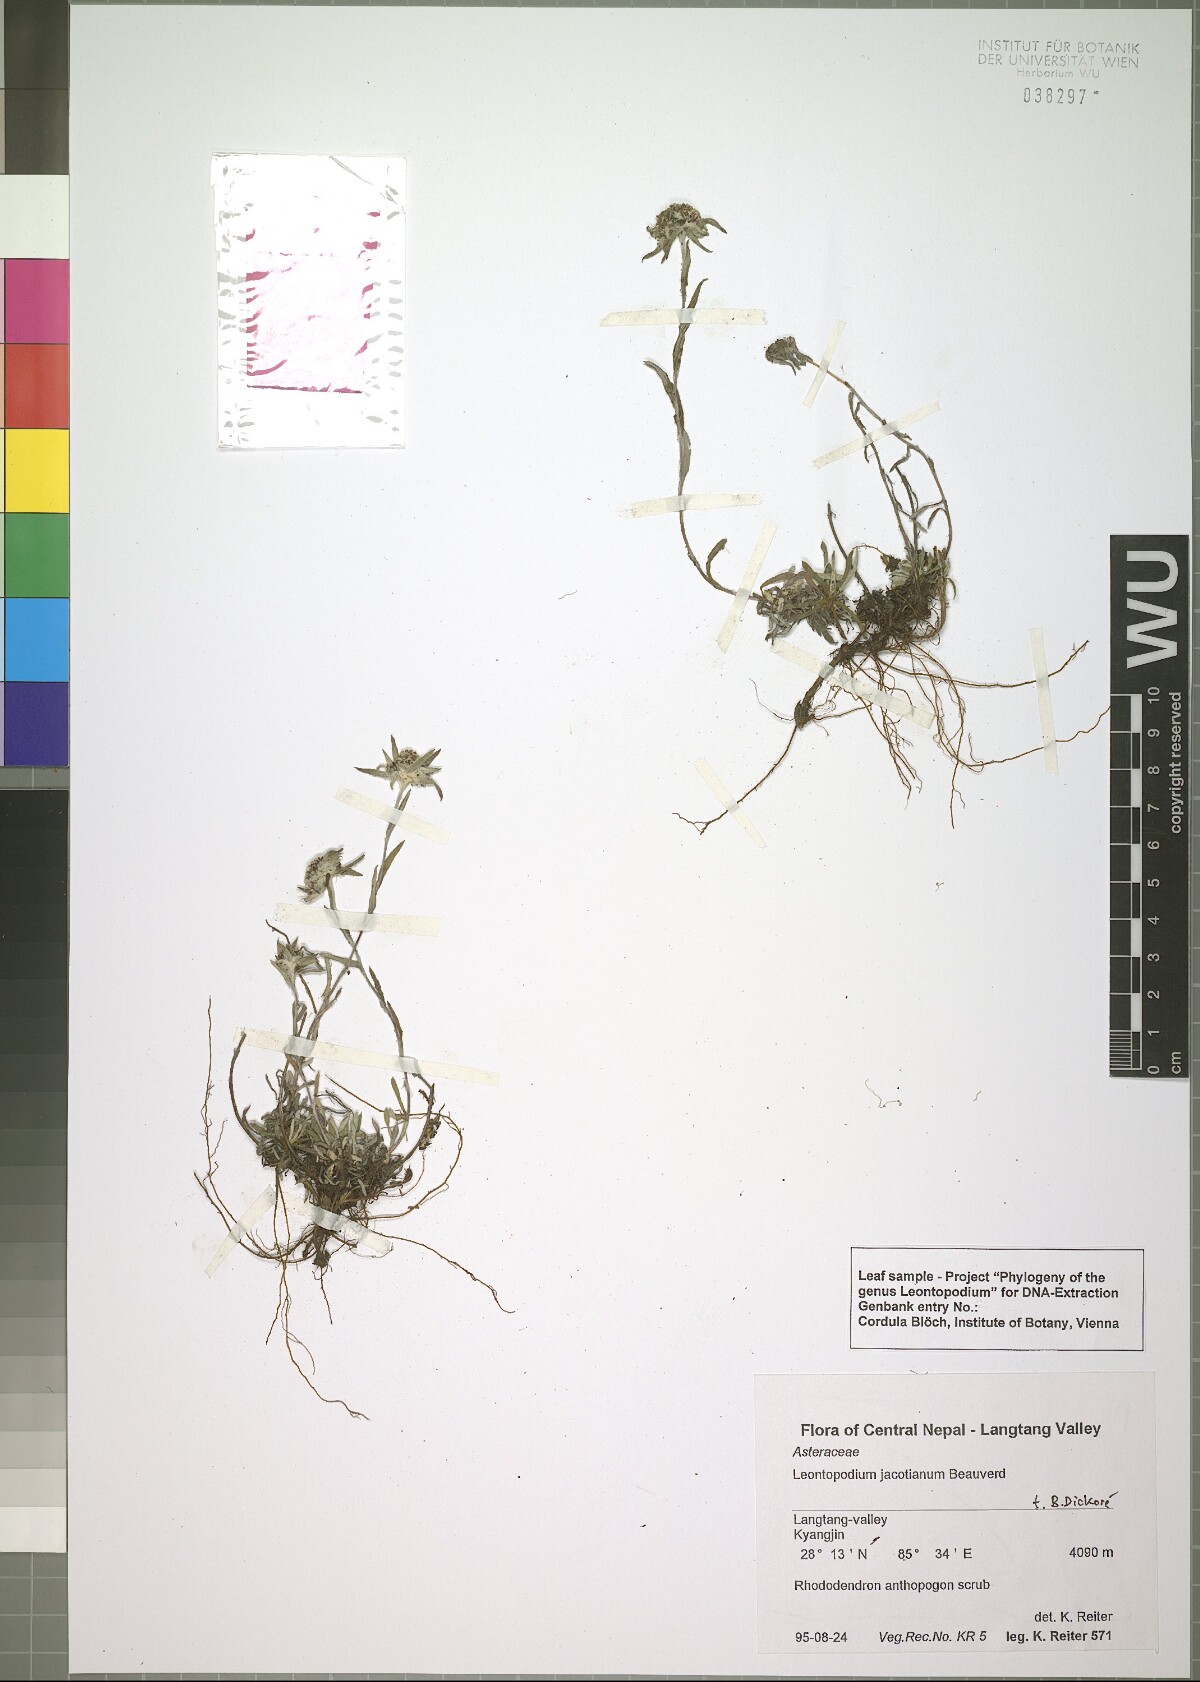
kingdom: Plantae
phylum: Tracheophyta
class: Magnoliopsida
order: Asterales
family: Asteraceae
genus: Leontopodium
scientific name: Leontopodium jacotianum
